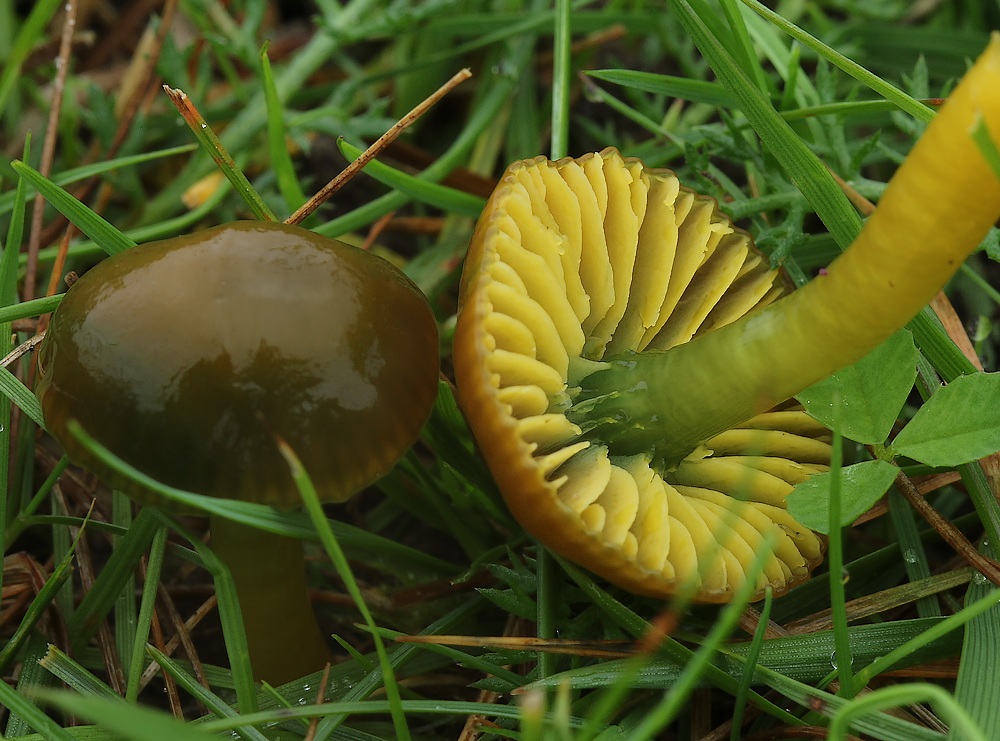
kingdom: Fungi
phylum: Basidiomycota
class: Agaricomycetes
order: Agaricales
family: Hygrophoraceae
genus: Gliophorus
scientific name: Gliophorus psittacinus
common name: papegøje-vokshat
